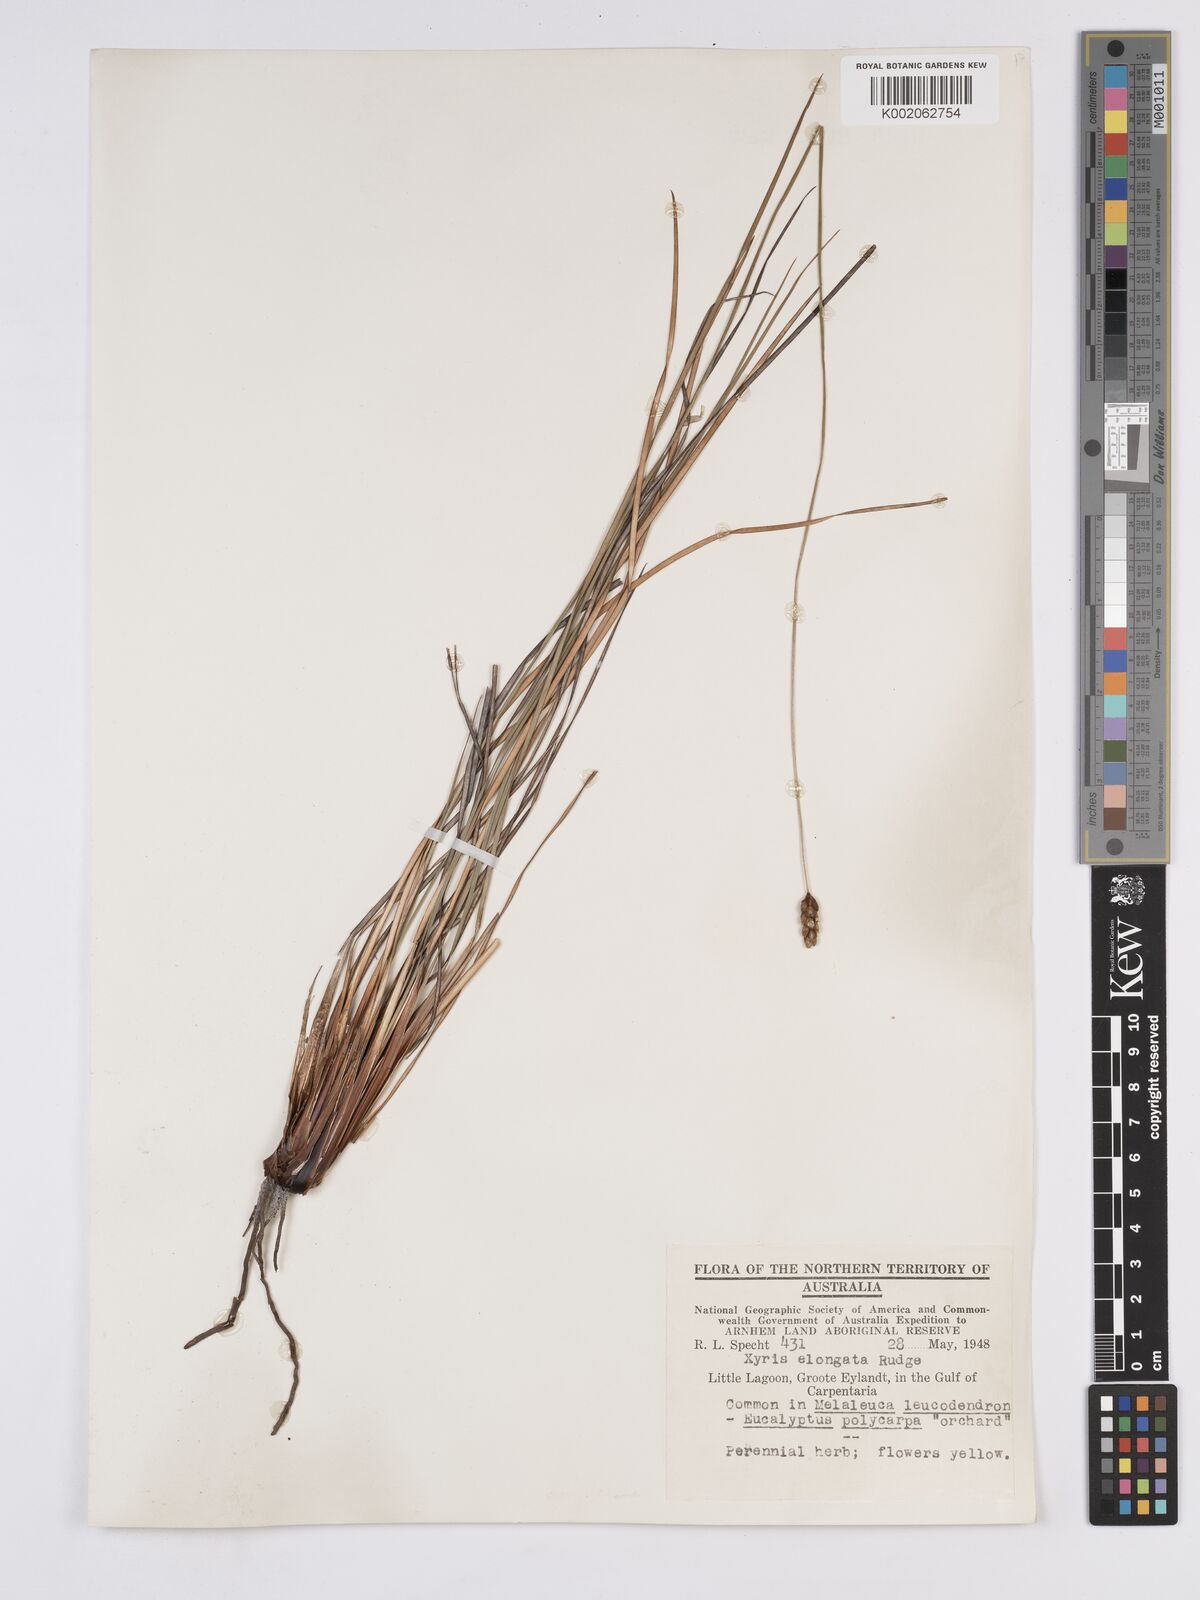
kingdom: Plantae
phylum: Tracheophyta
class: Liliopsida
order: Poales
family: Xyridaceae
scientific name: Xyridaceae
